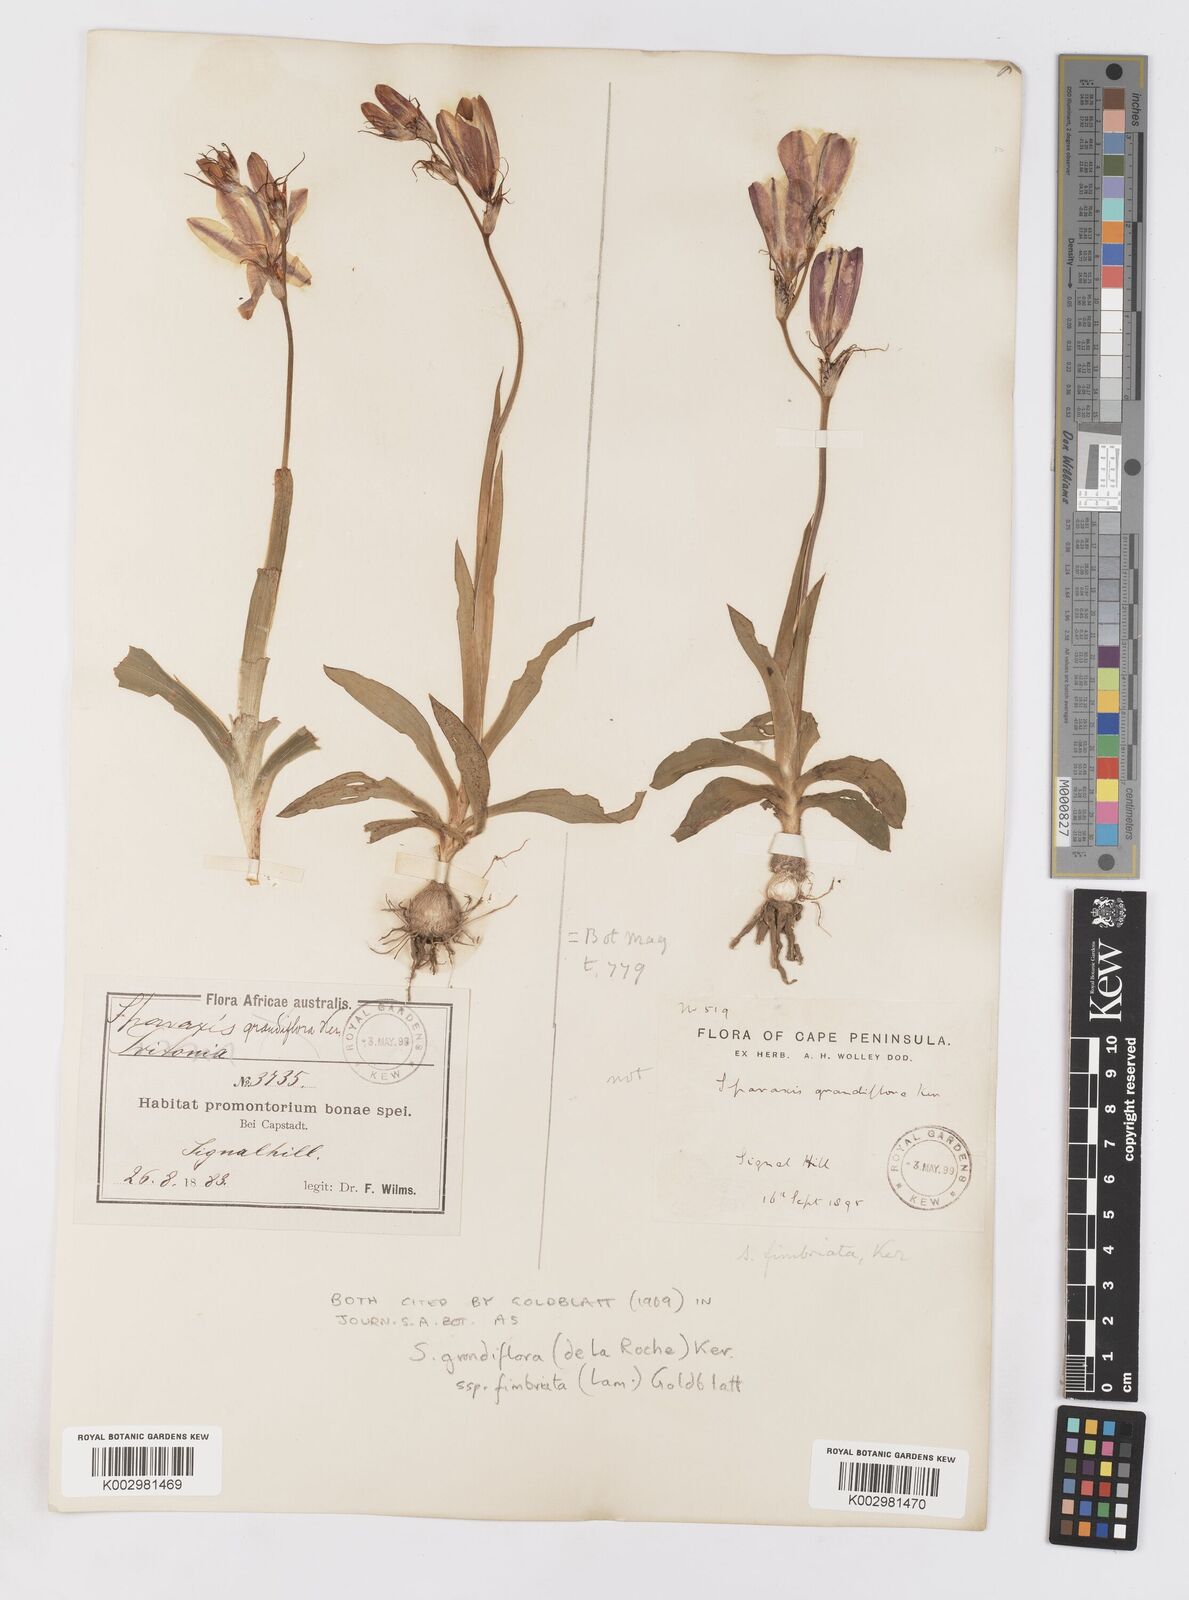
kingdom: Plantae
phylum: Tracheophyta
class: Liliopsida
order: Asparagales
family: Iridaceae
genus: Sparaxis
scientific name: Sparaxis grandiflora
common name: Plain harlequin-flower
